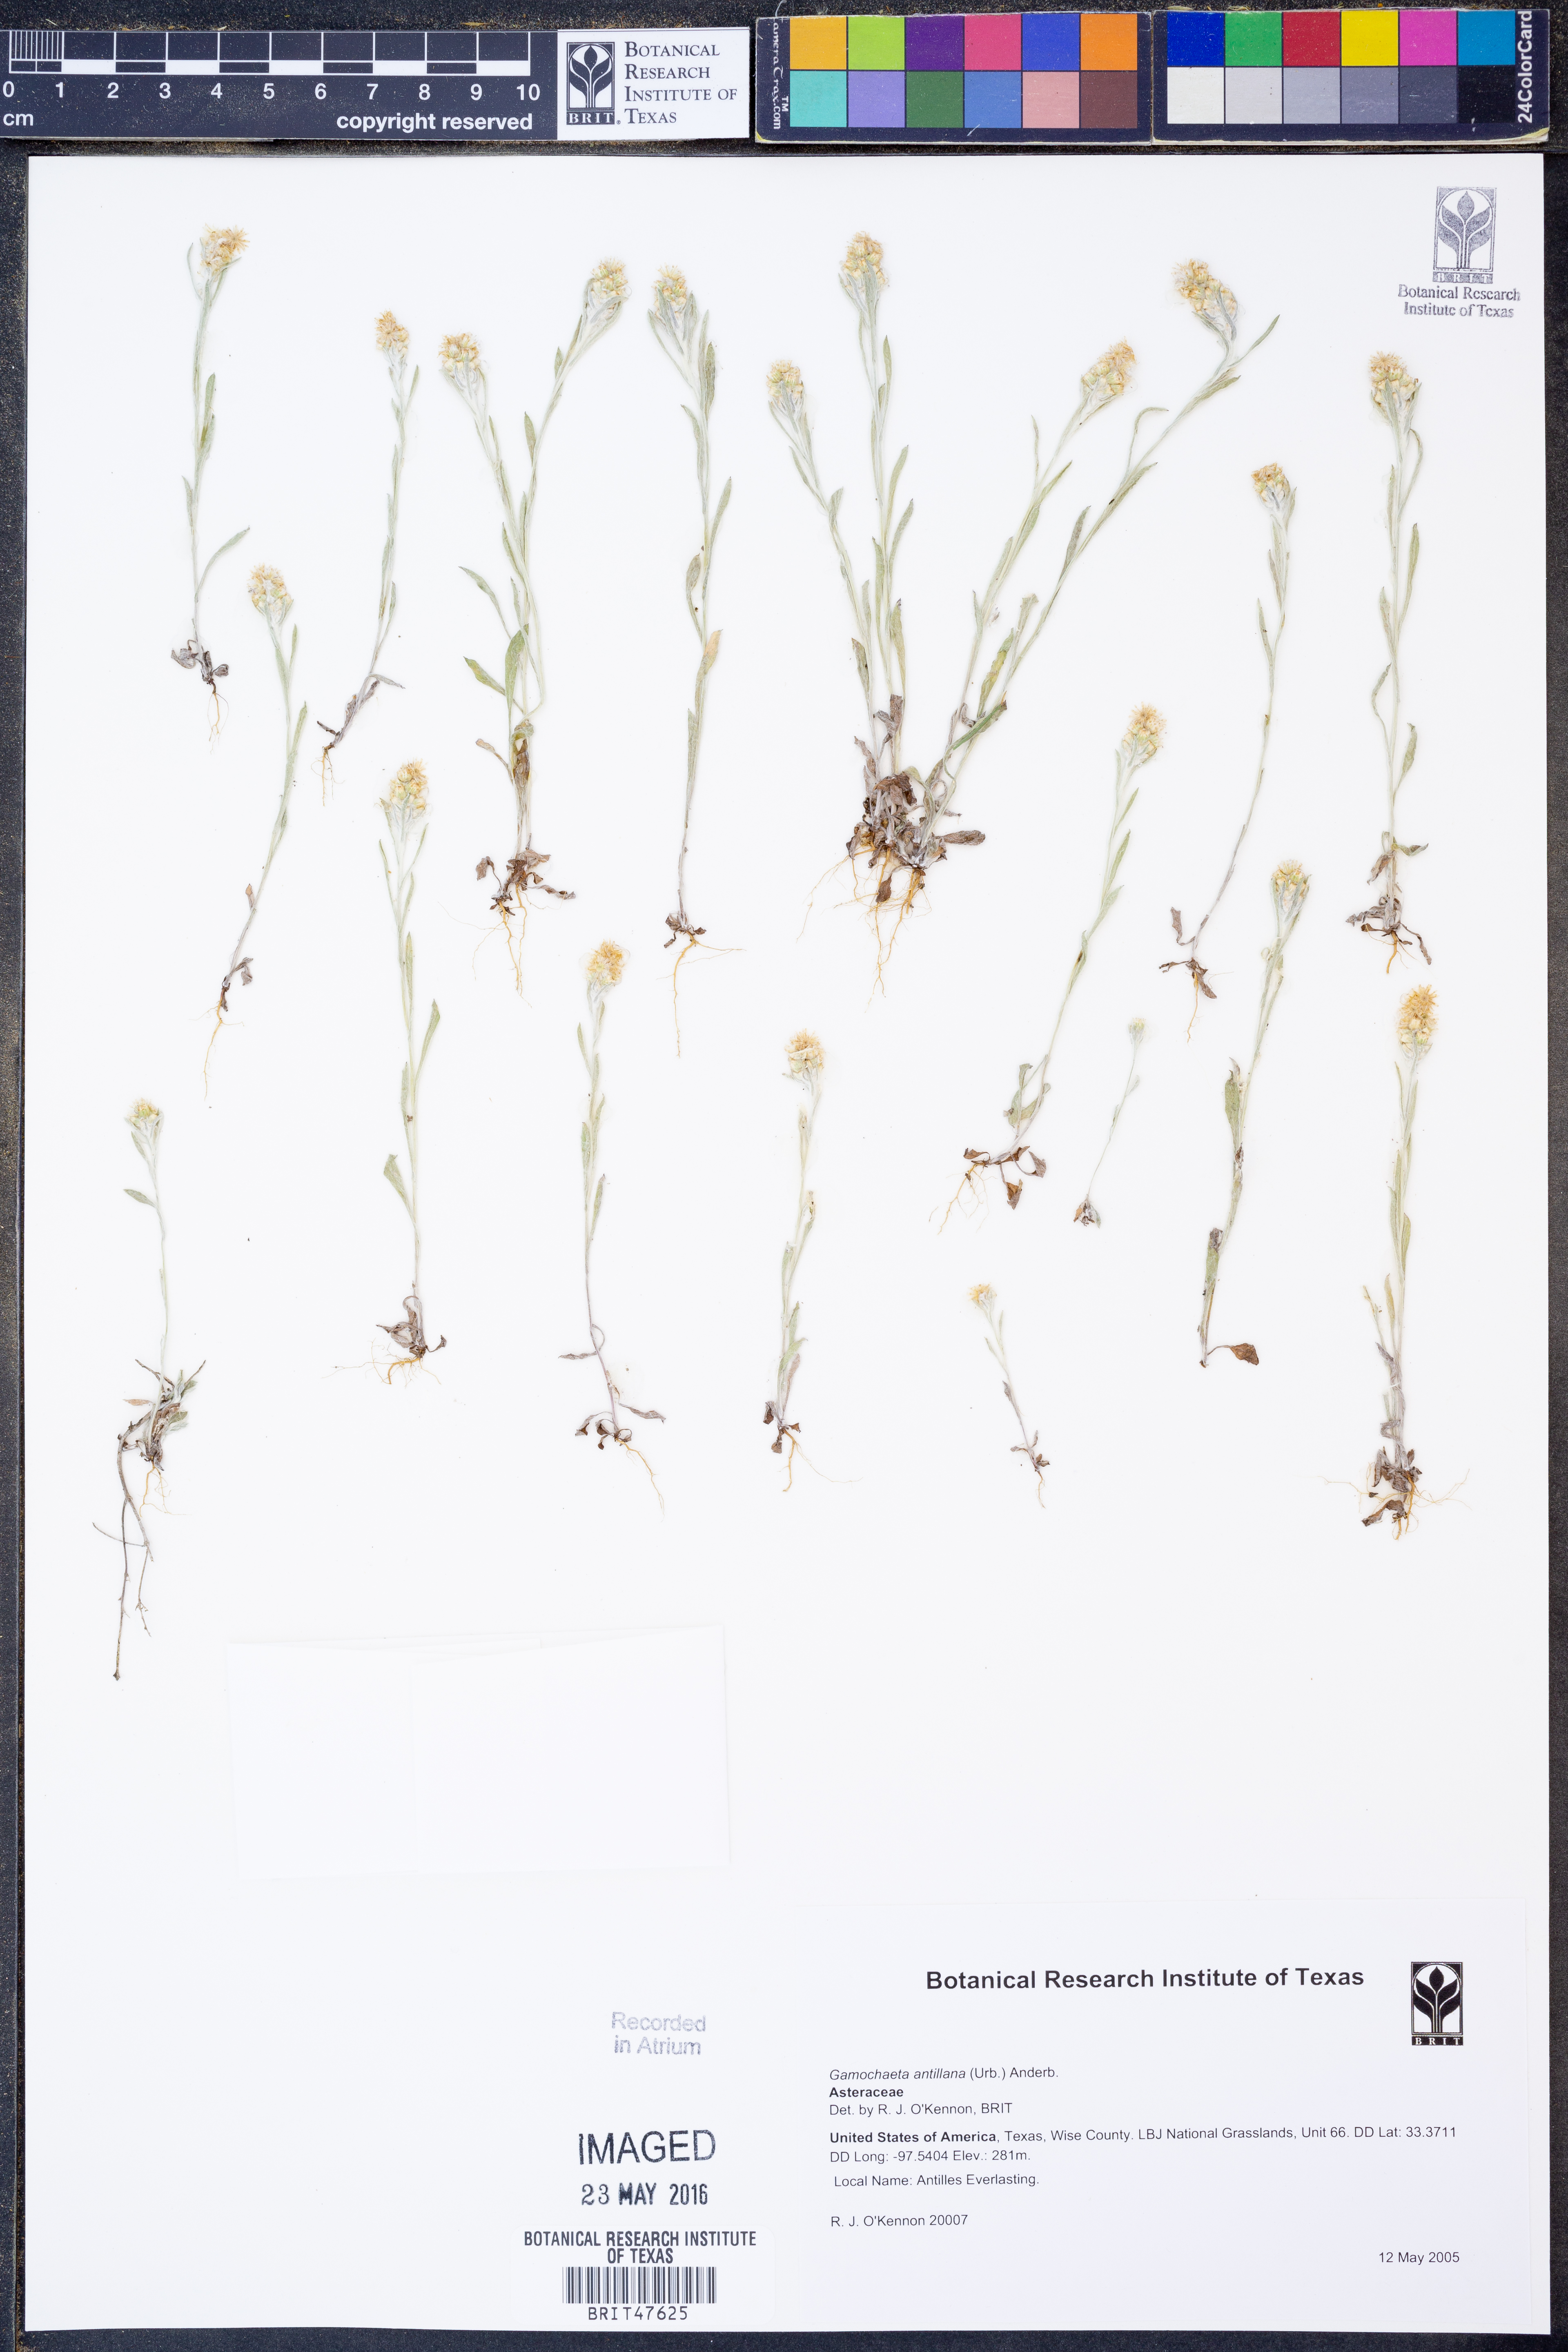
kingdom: Plantae
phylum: Tracheophyta
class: Magnoliopsida
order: Asterales
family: Asteraceae
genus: Gamochaeta
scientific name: Gamochaeta antillana
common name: Delicate everlasting
